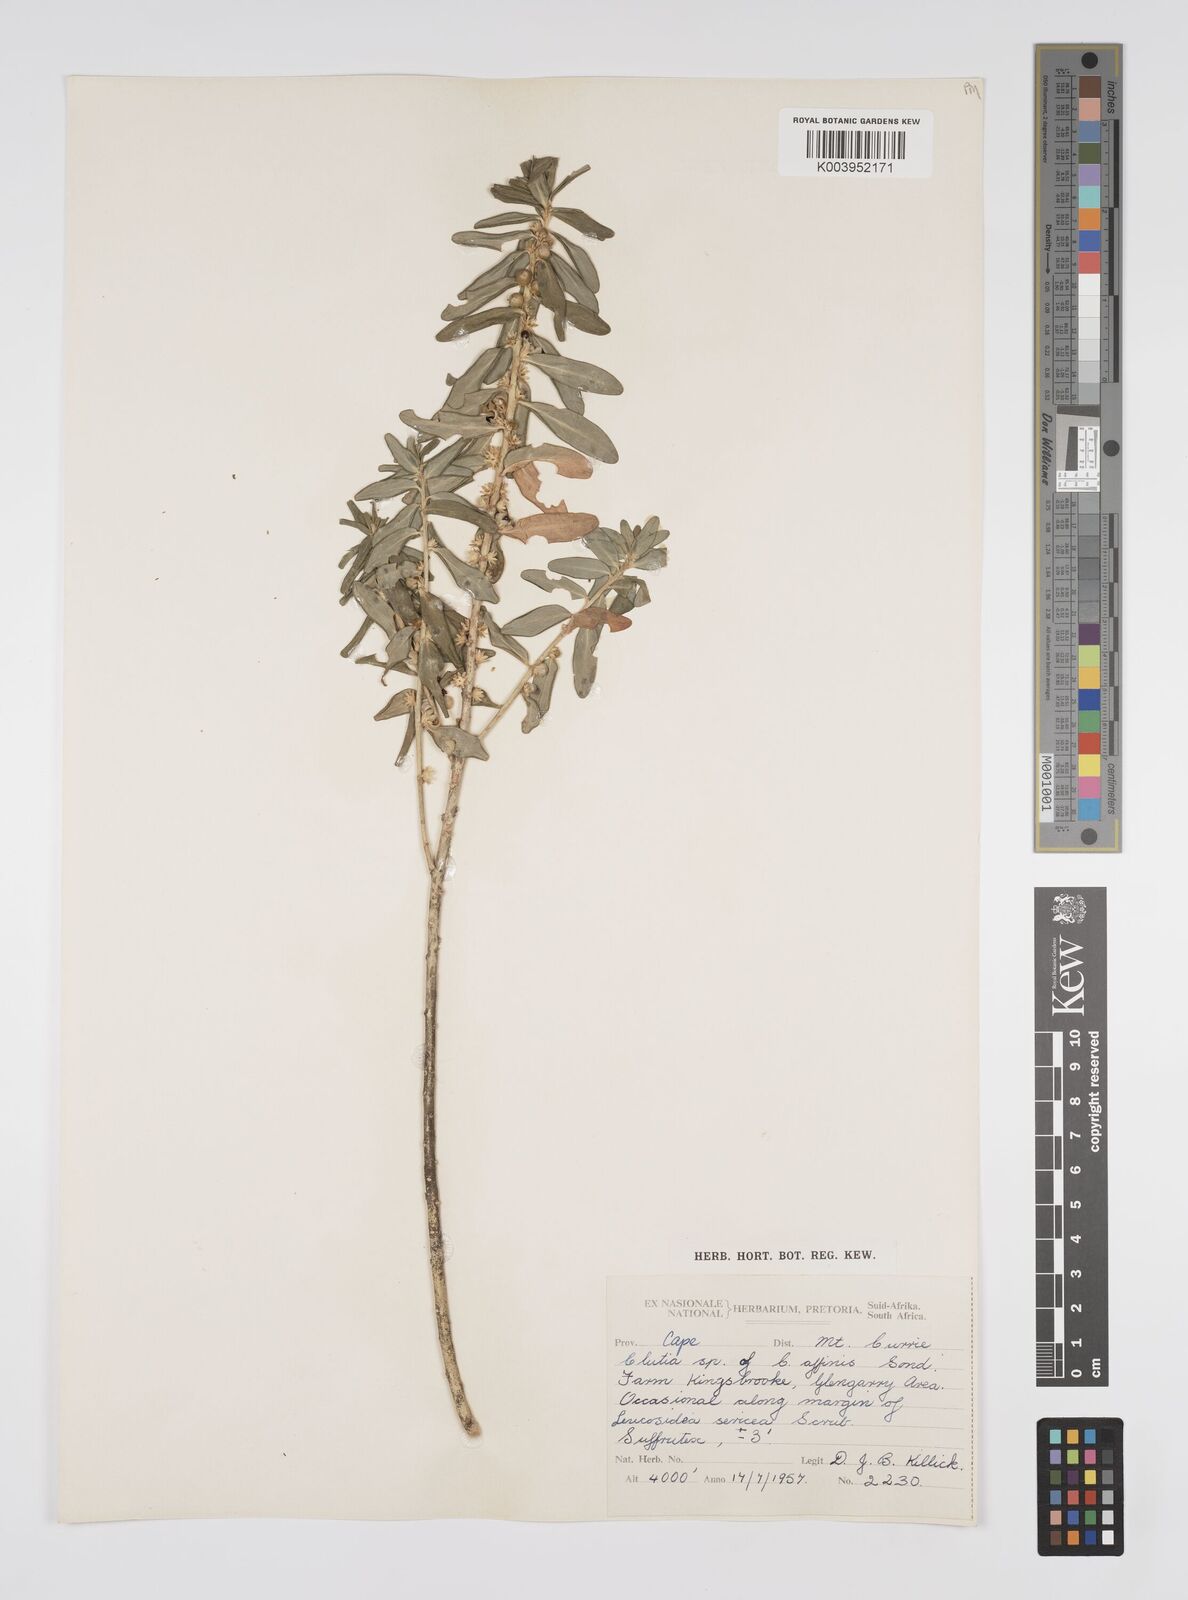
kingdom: Plantae
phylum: Tracheophyta
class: Magnoliopsida
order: Malpighiales
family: Peraceae
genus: Clutia
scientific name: Clutia affinis
